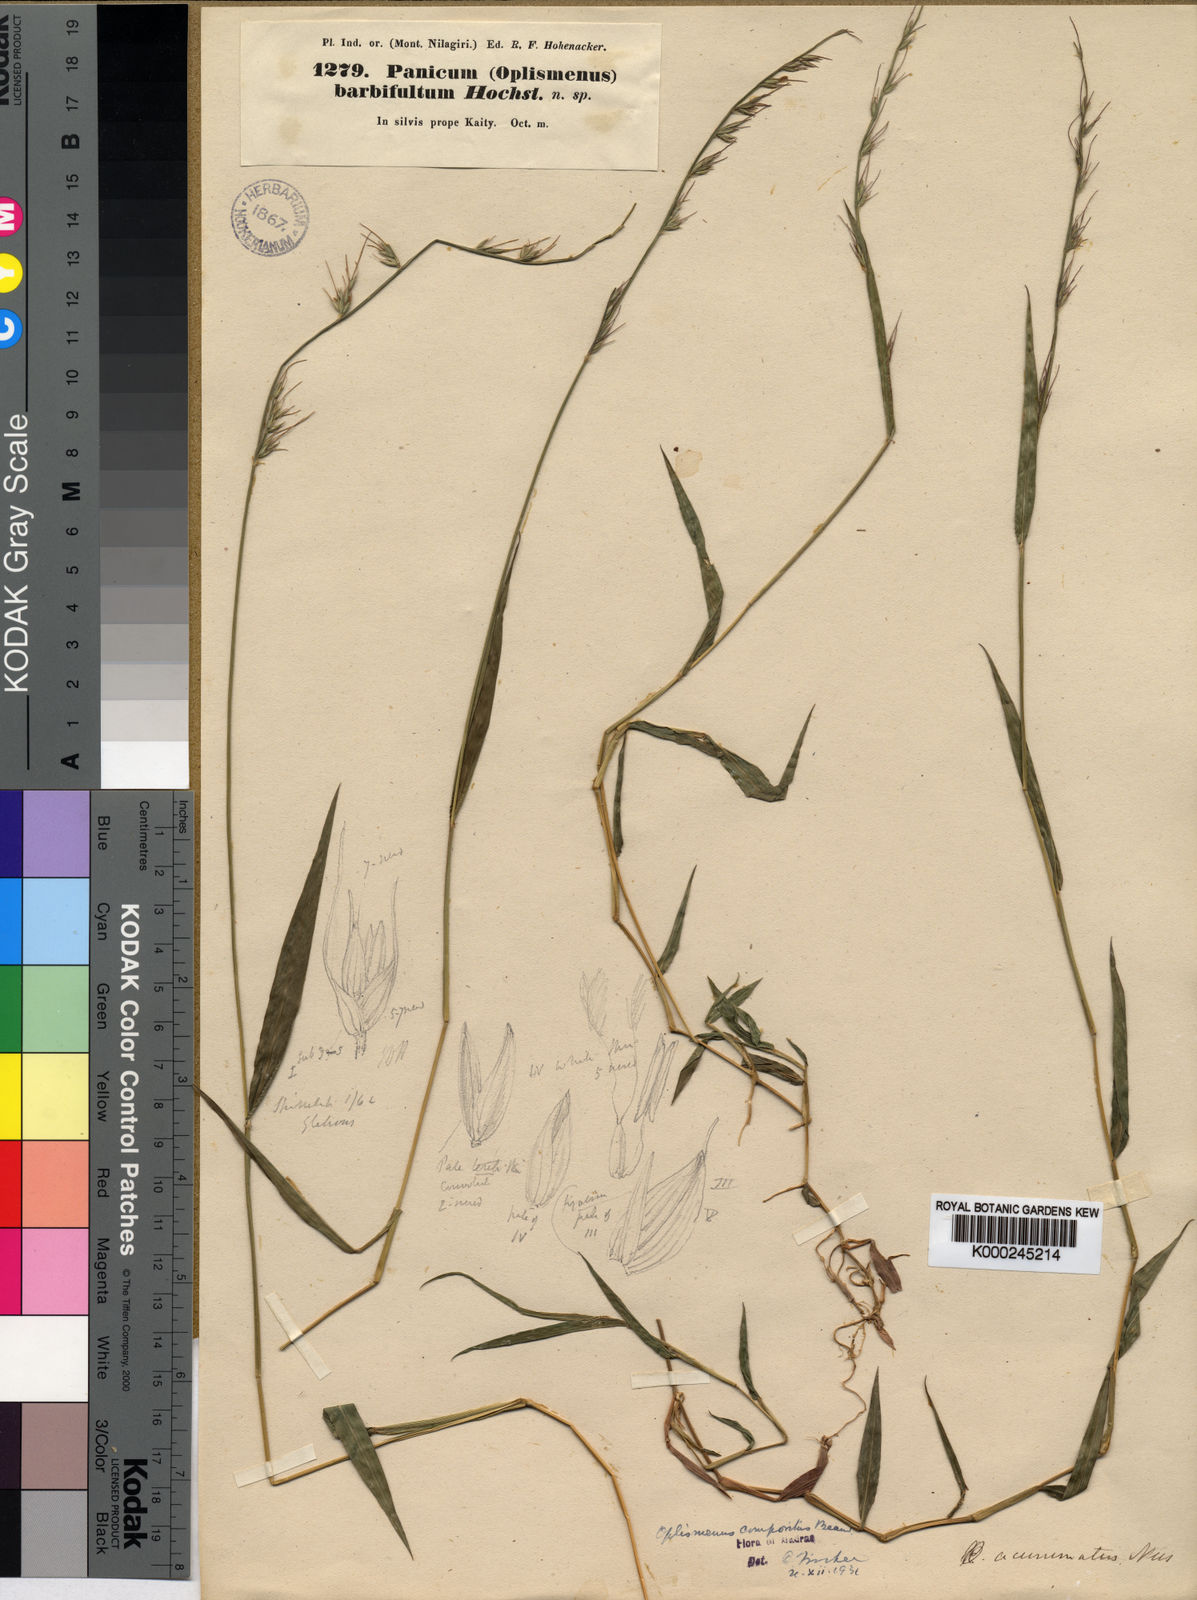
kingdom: Plantae
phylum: Tracheophyta
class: Liliopsida
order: Poales
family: Poaceae
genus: Oplismenus
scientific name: Oplismenus compositus
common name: Running mountain grass
